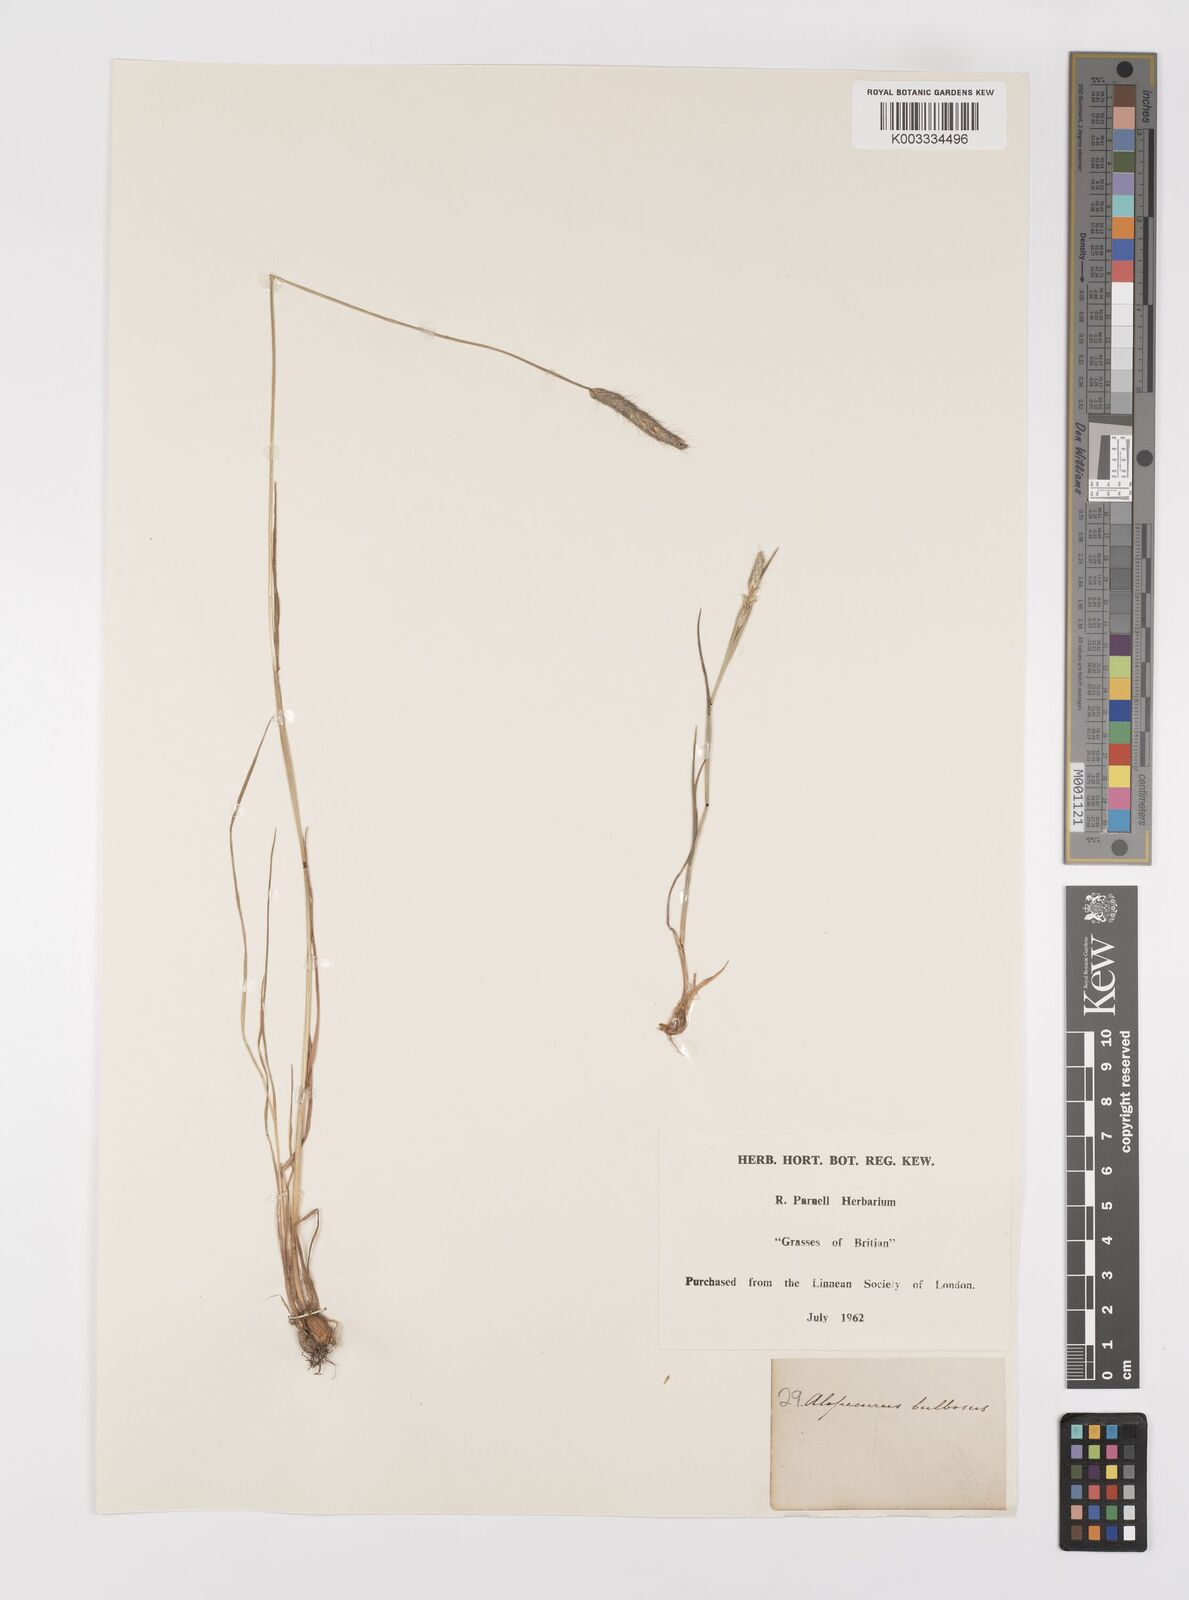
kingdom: Plantae
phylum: Tracheophyta
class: Liliopsida
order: Poales
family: Poaceae
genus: Alopecurus
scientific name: Alopecurus bulbosus
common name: Bulbous foxtail
